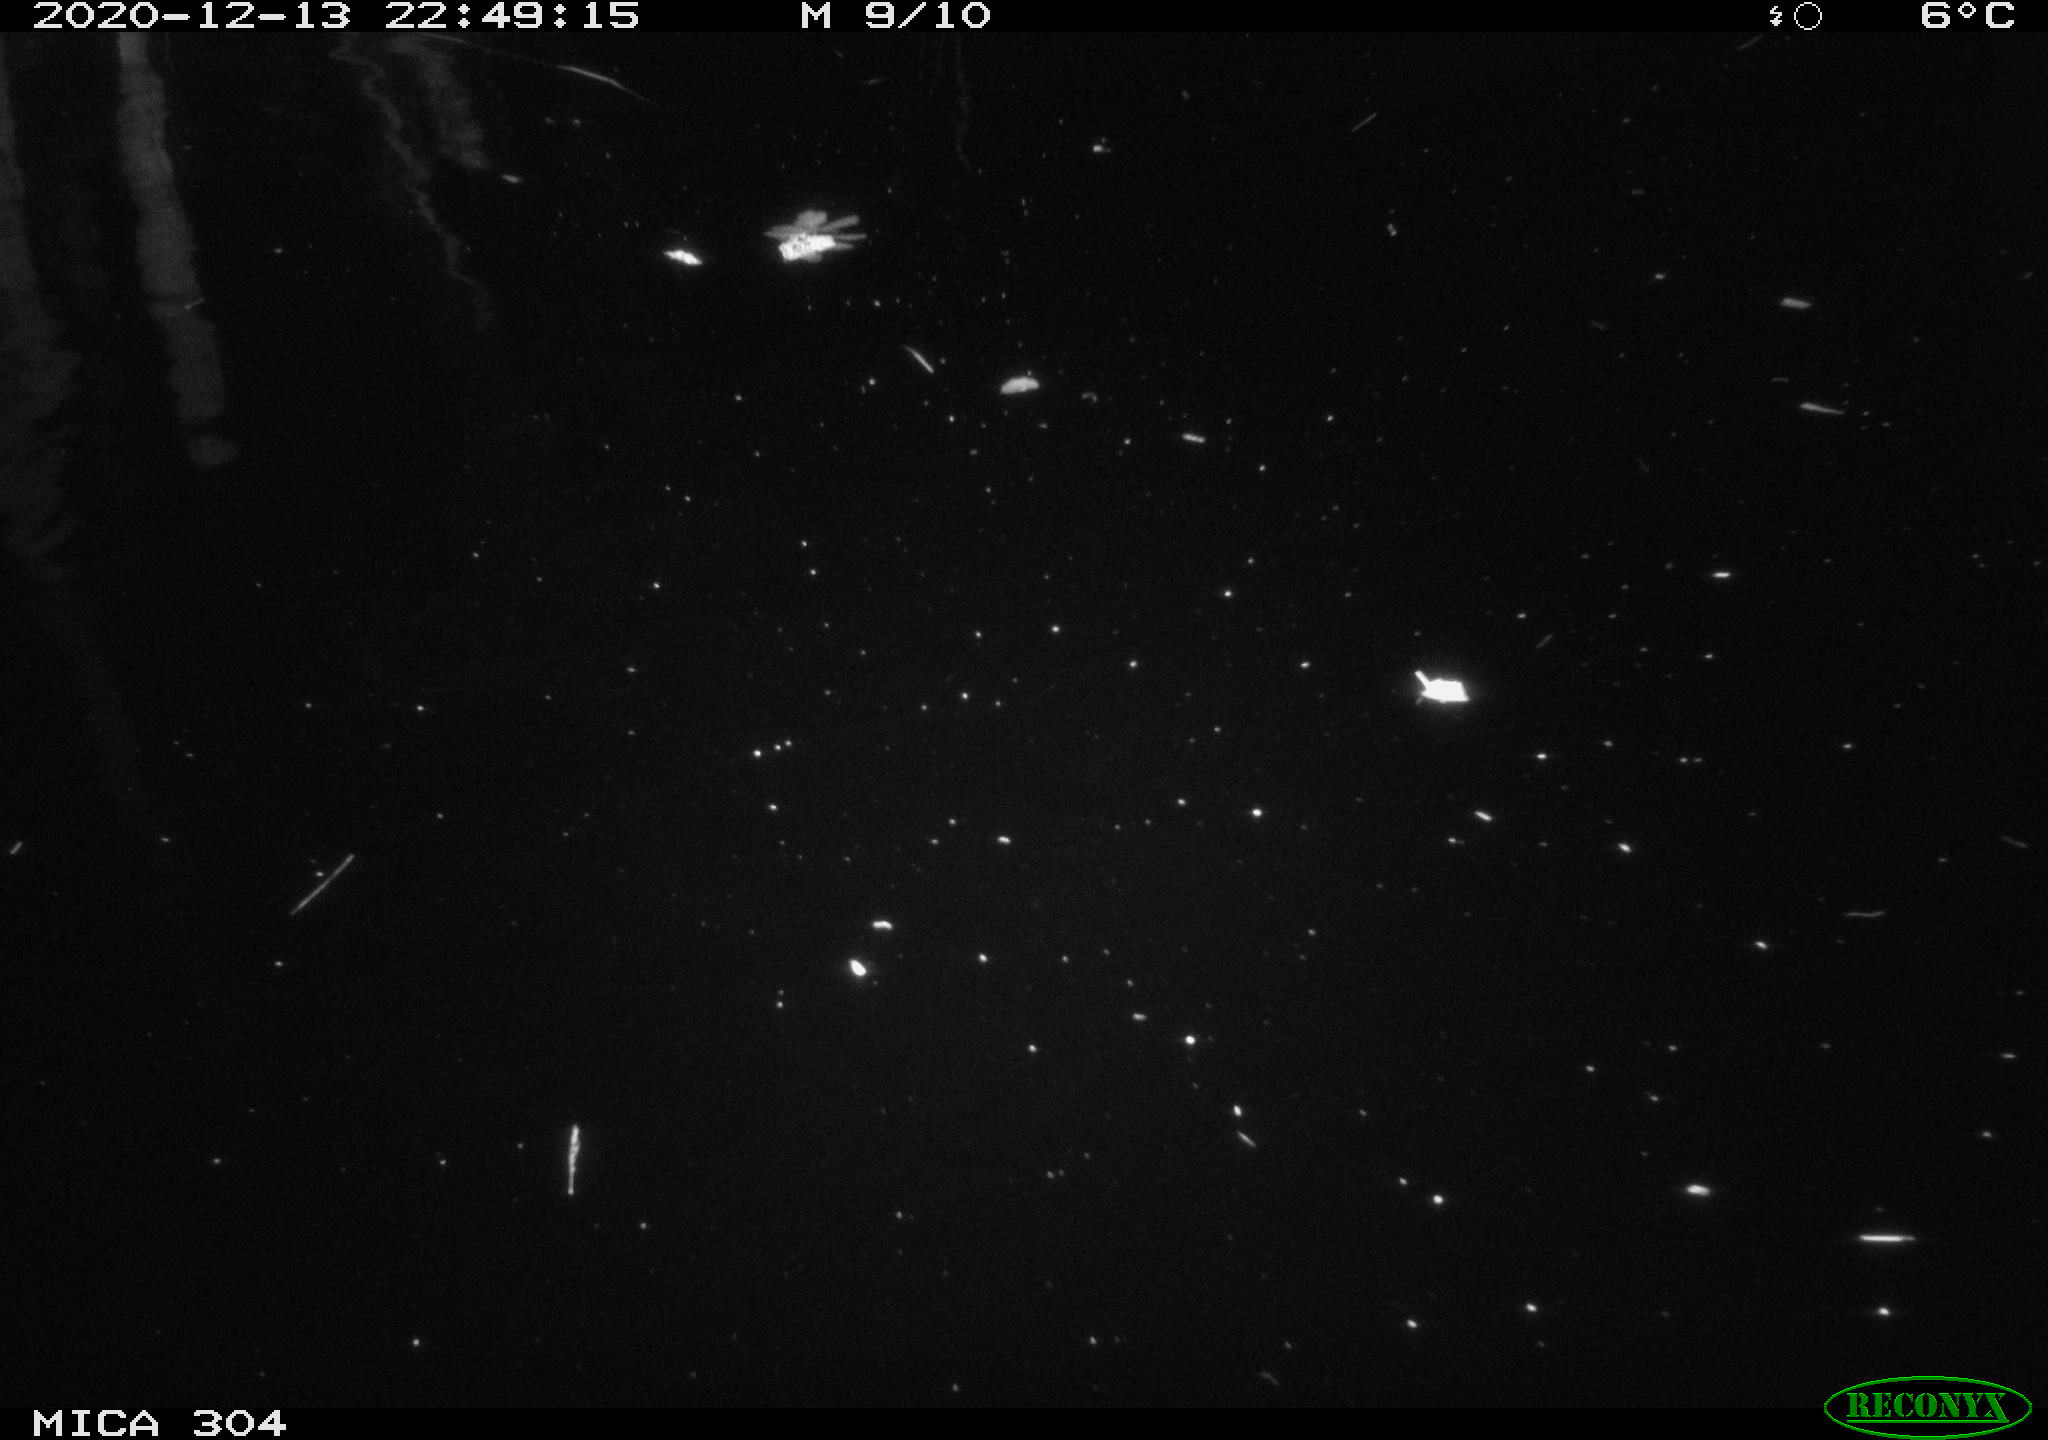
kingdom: Animalia
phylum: Chordata
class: Mammalia
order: Rodentia
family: Cricetidae
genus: Ondatra
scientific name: Ondatra zibethicus
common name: Muskrat
